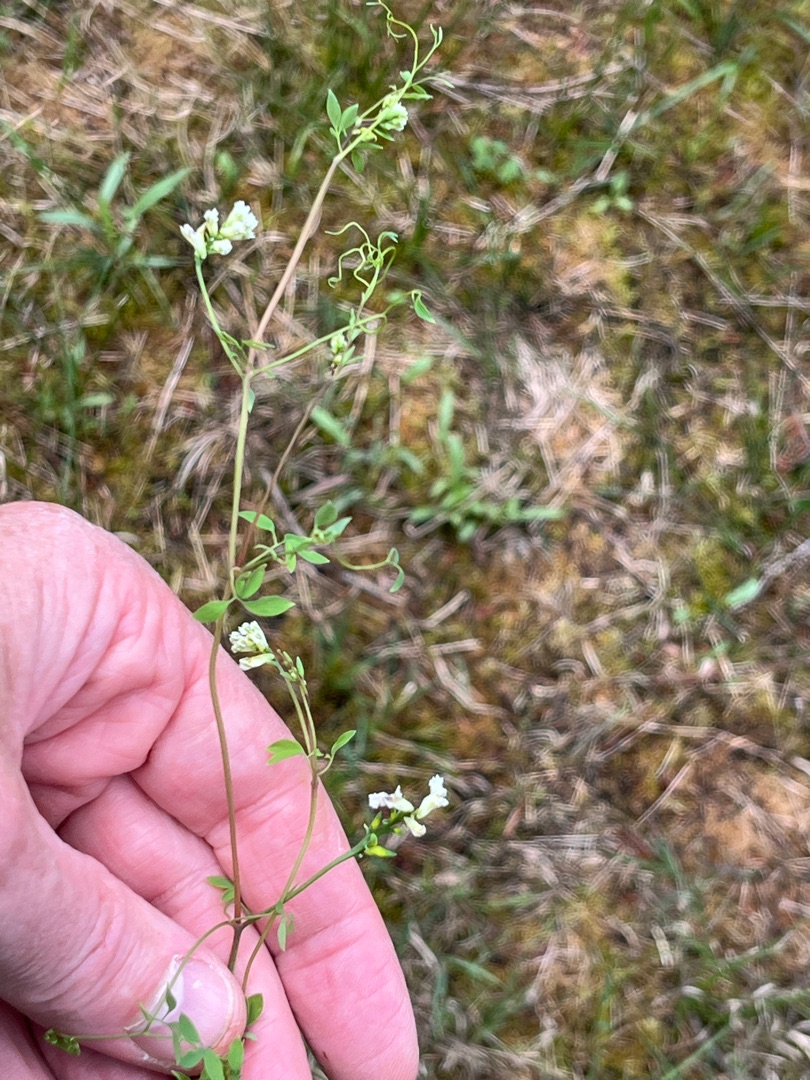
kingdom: Plantae
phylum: Tracheophyta
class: Magnoliopsida
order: Ranunculales
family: Papaveraceae
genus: Ceratocapnos
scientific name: Ceratocapnos claviculata
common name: Klatrende lærkespore
